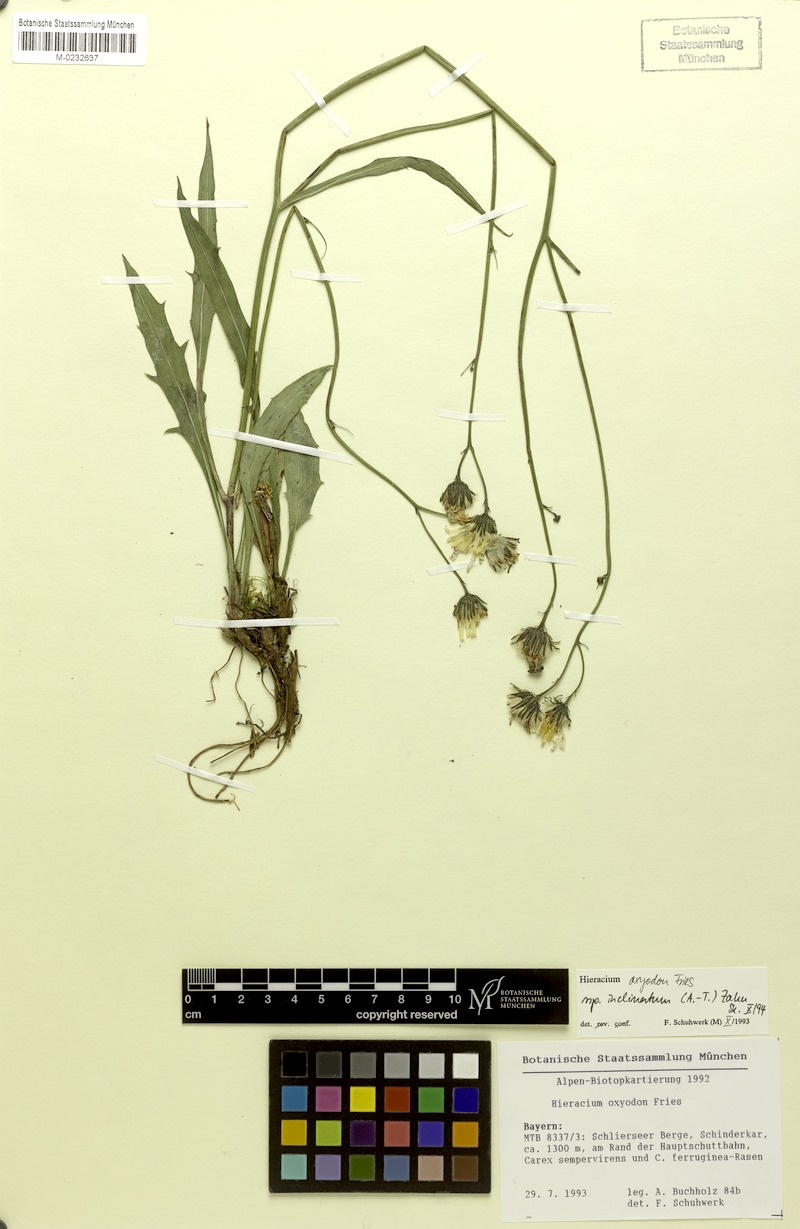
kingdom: Plantae
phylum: Tracheophyta
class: Magnoliopsida
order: Asterales
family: Asteraceae
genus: Hieracium
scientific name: Hieracium oxyodon
